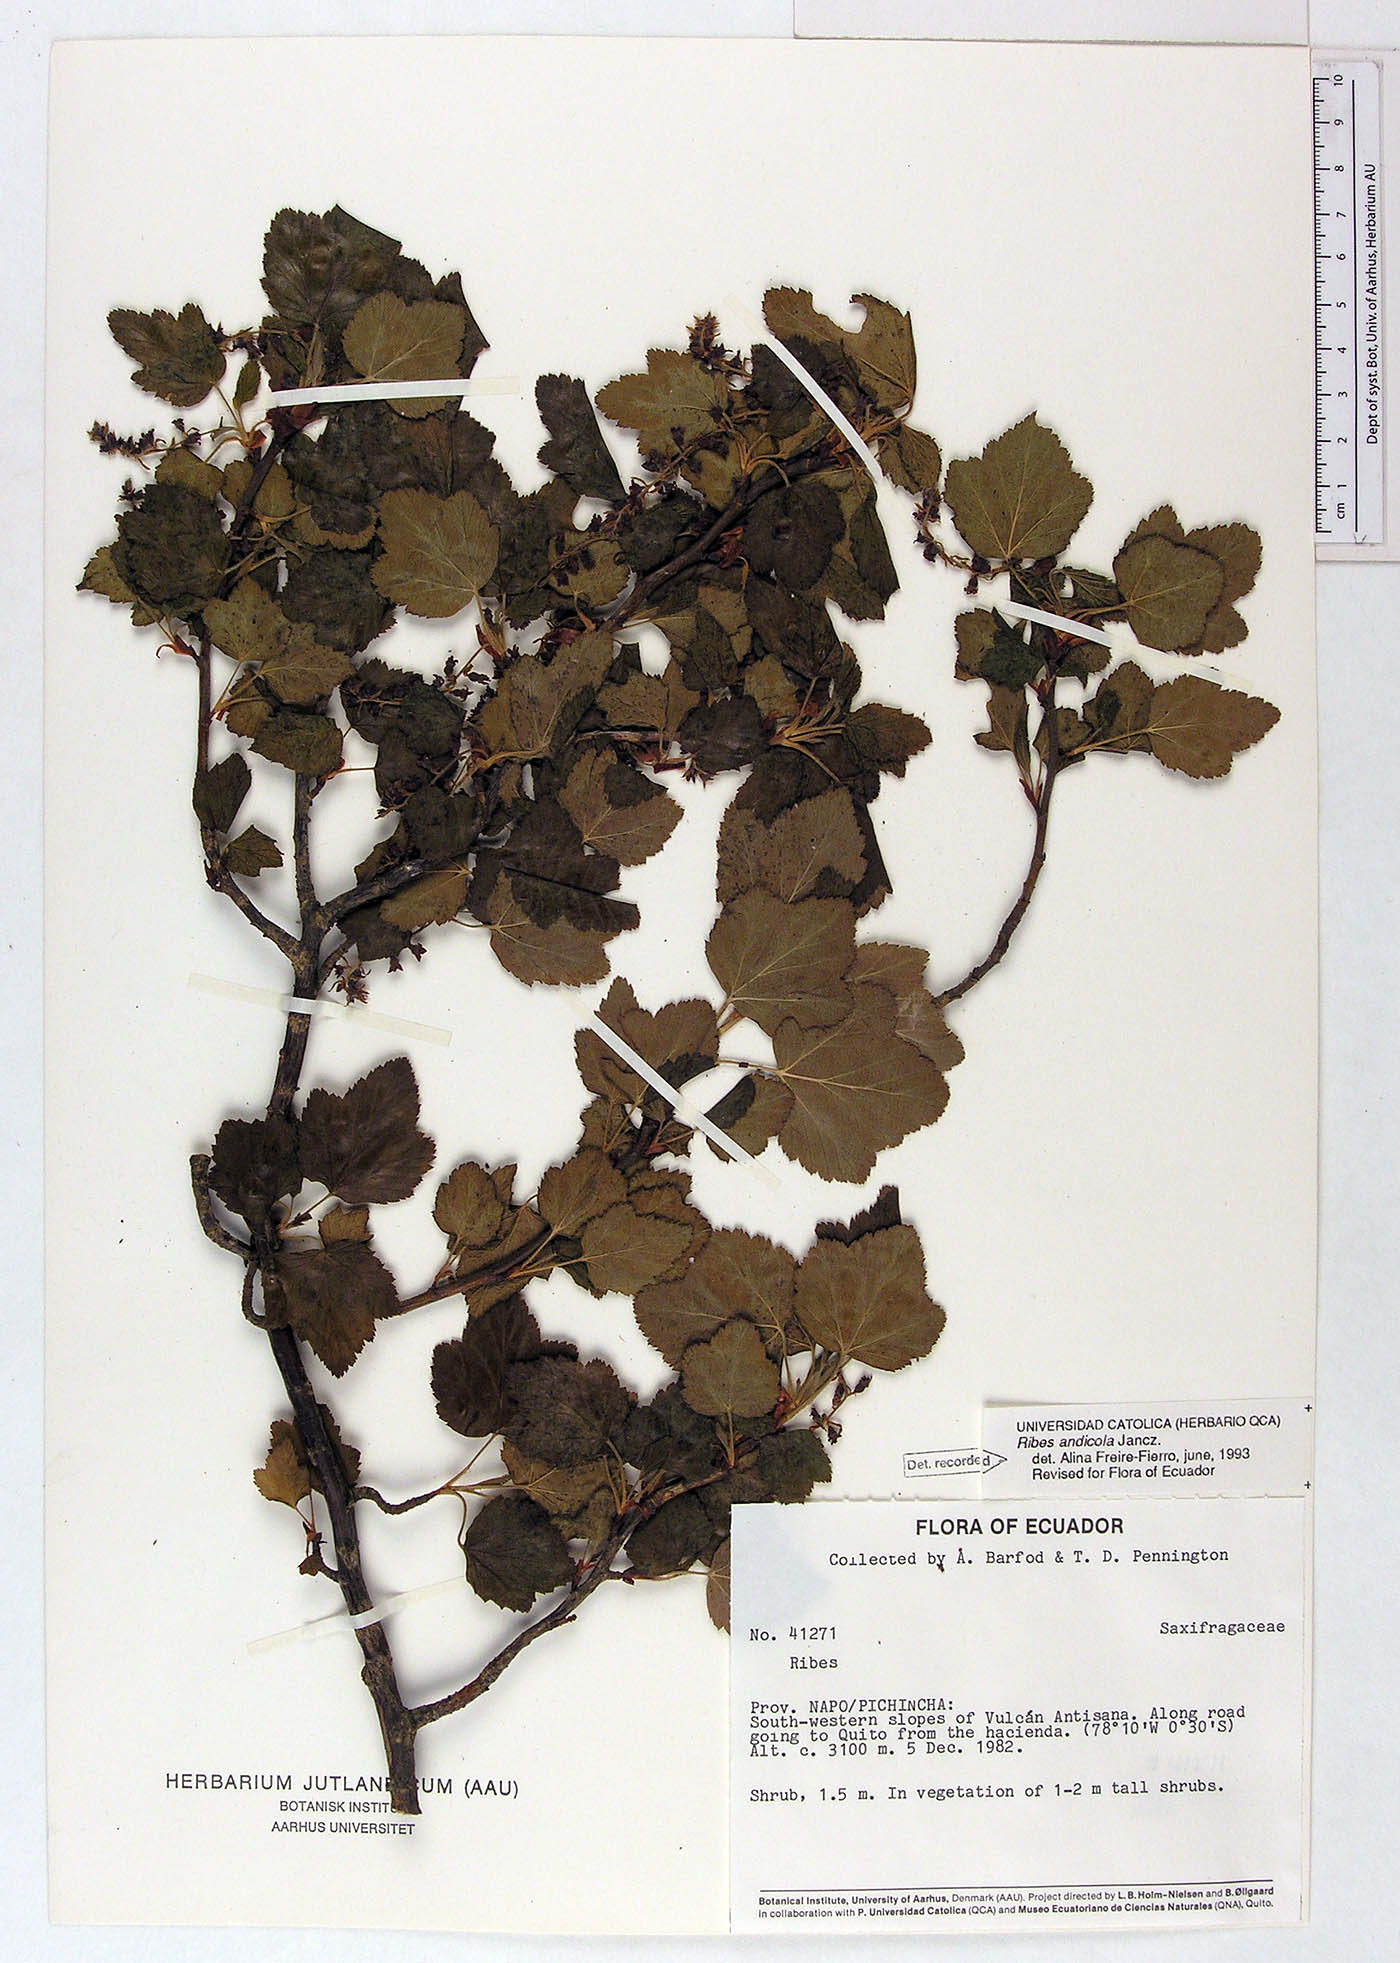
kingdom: Plantae
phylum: Tracheophyta
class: Magnoliopsida
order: Saxifragales
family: Grossulariaceae
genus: Ribes
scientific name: Ribes andicola
